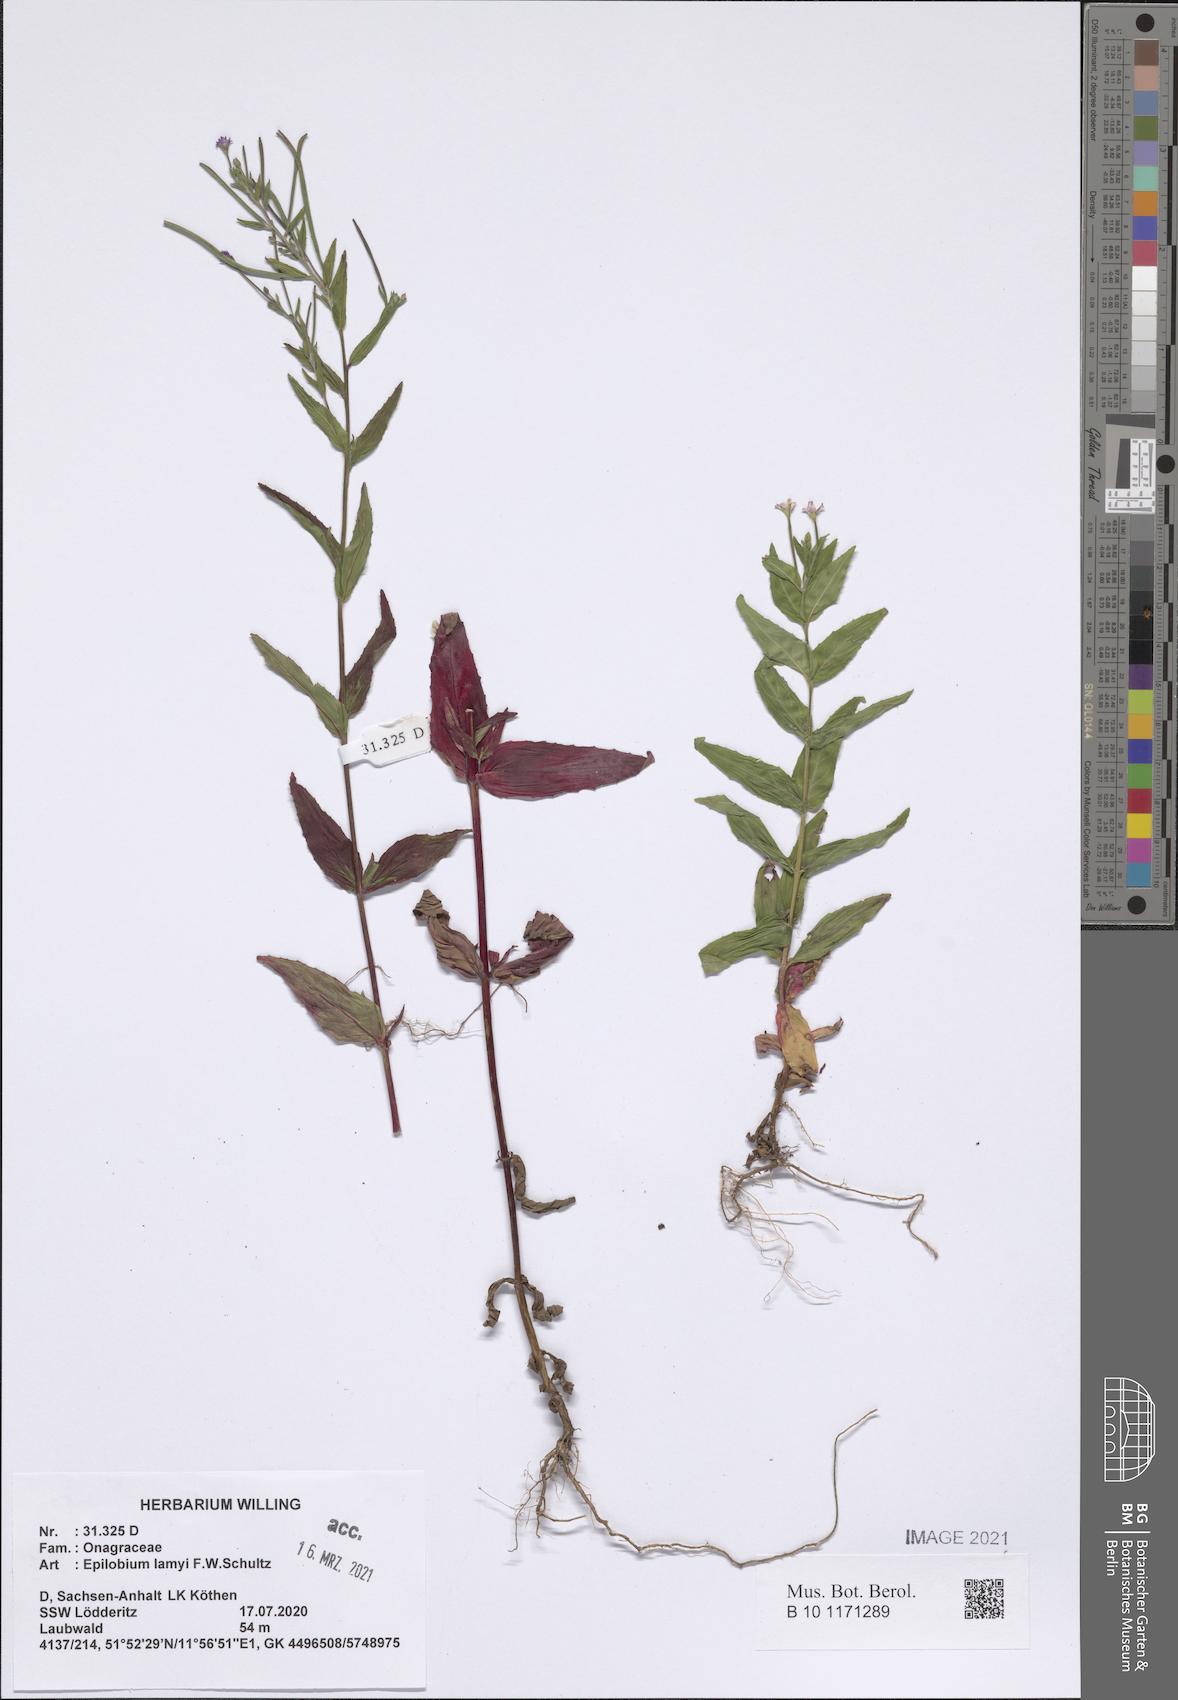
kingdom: Plantae
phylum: Tracheophyta
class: Magnoliopsida
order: Myrtales
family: Onagraceae
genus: Epilobium
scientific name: Epilobium lamyi
